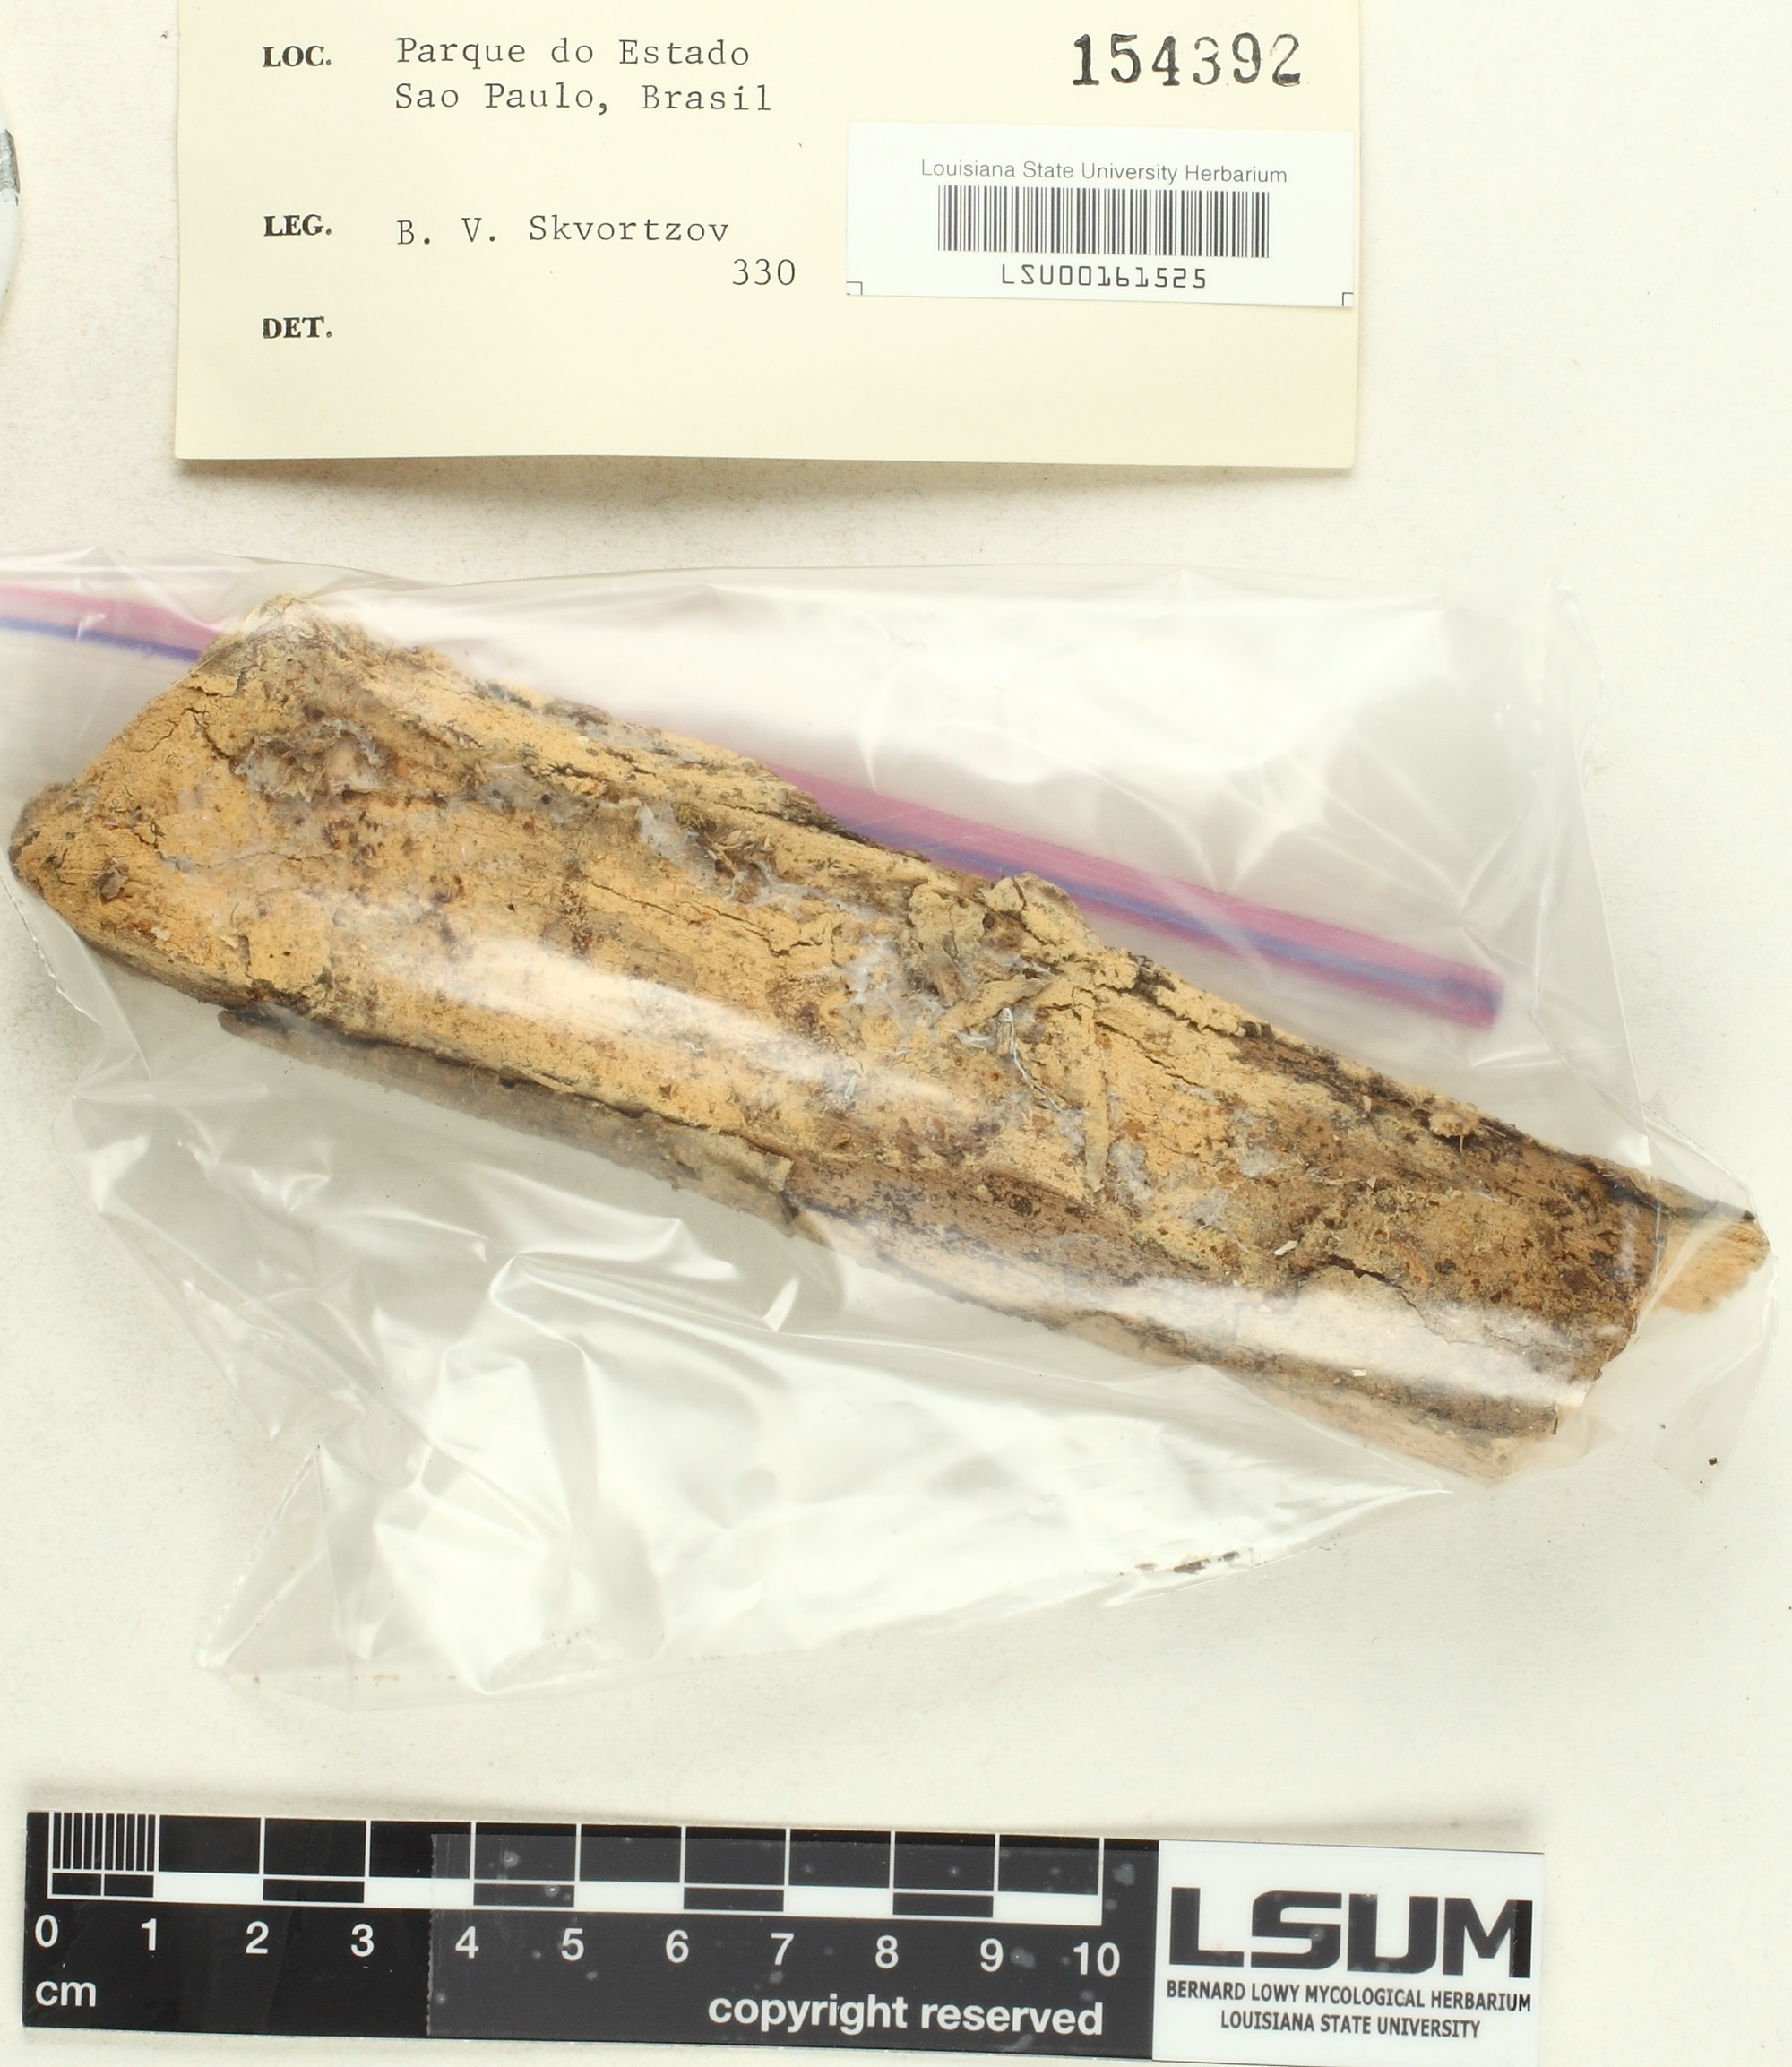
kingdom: Fungi
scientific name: Fungi
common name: Fungi
